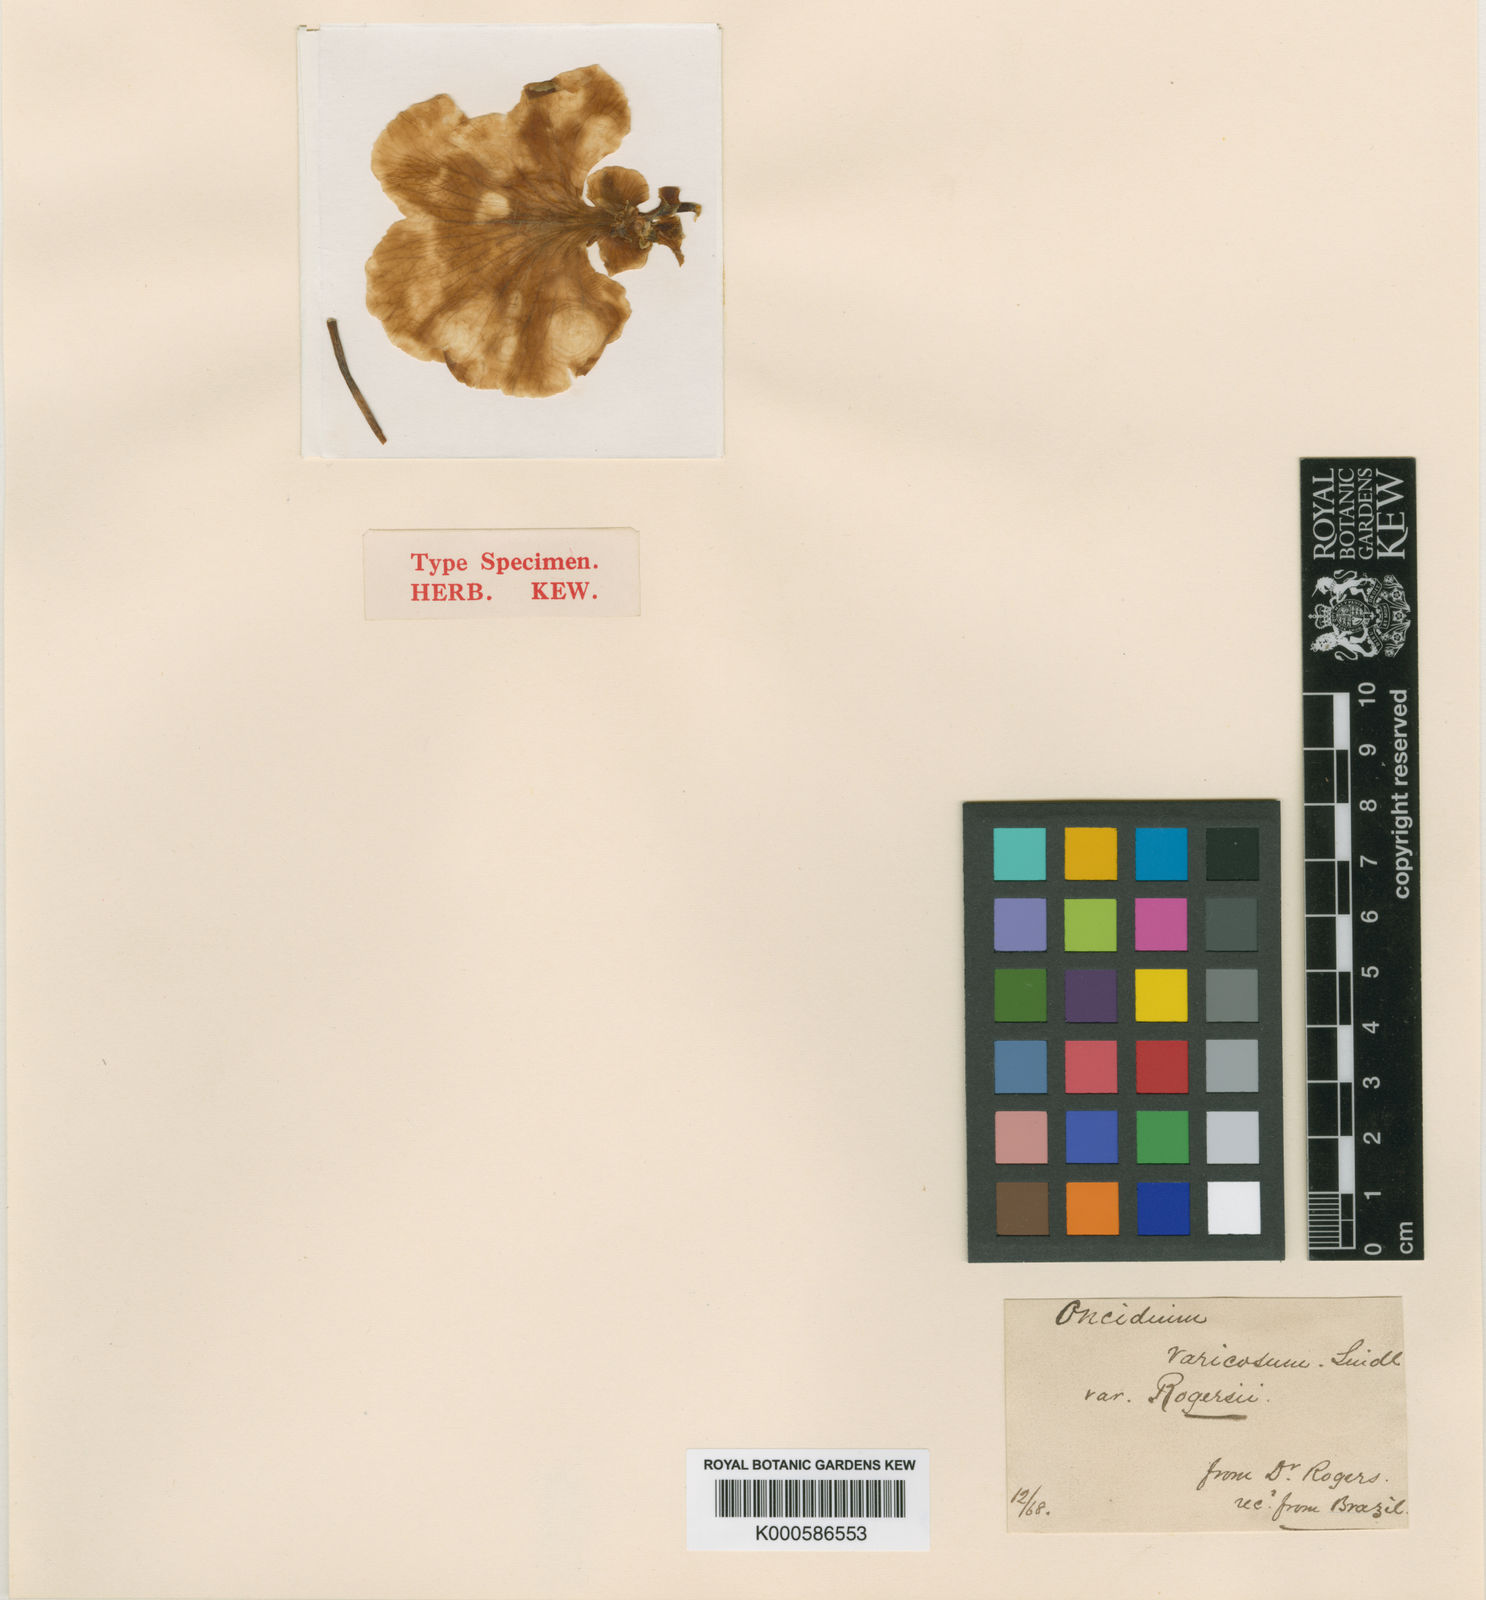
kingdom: Plantae
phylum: Tracheophyta
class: Liliopsida
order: Asparagales
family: Orchidaceae
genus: Gomesa
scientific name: Gomesa varicosa
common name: Dancing ladies
